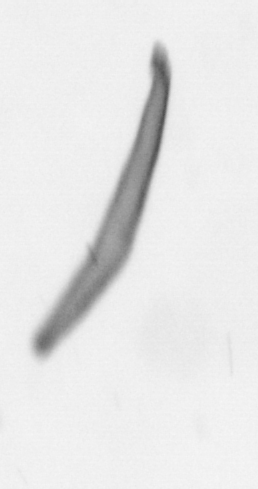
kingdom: Chromista
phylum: Ochrophyta
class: Bacillariophyceae
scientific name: Bacillariophyceae
